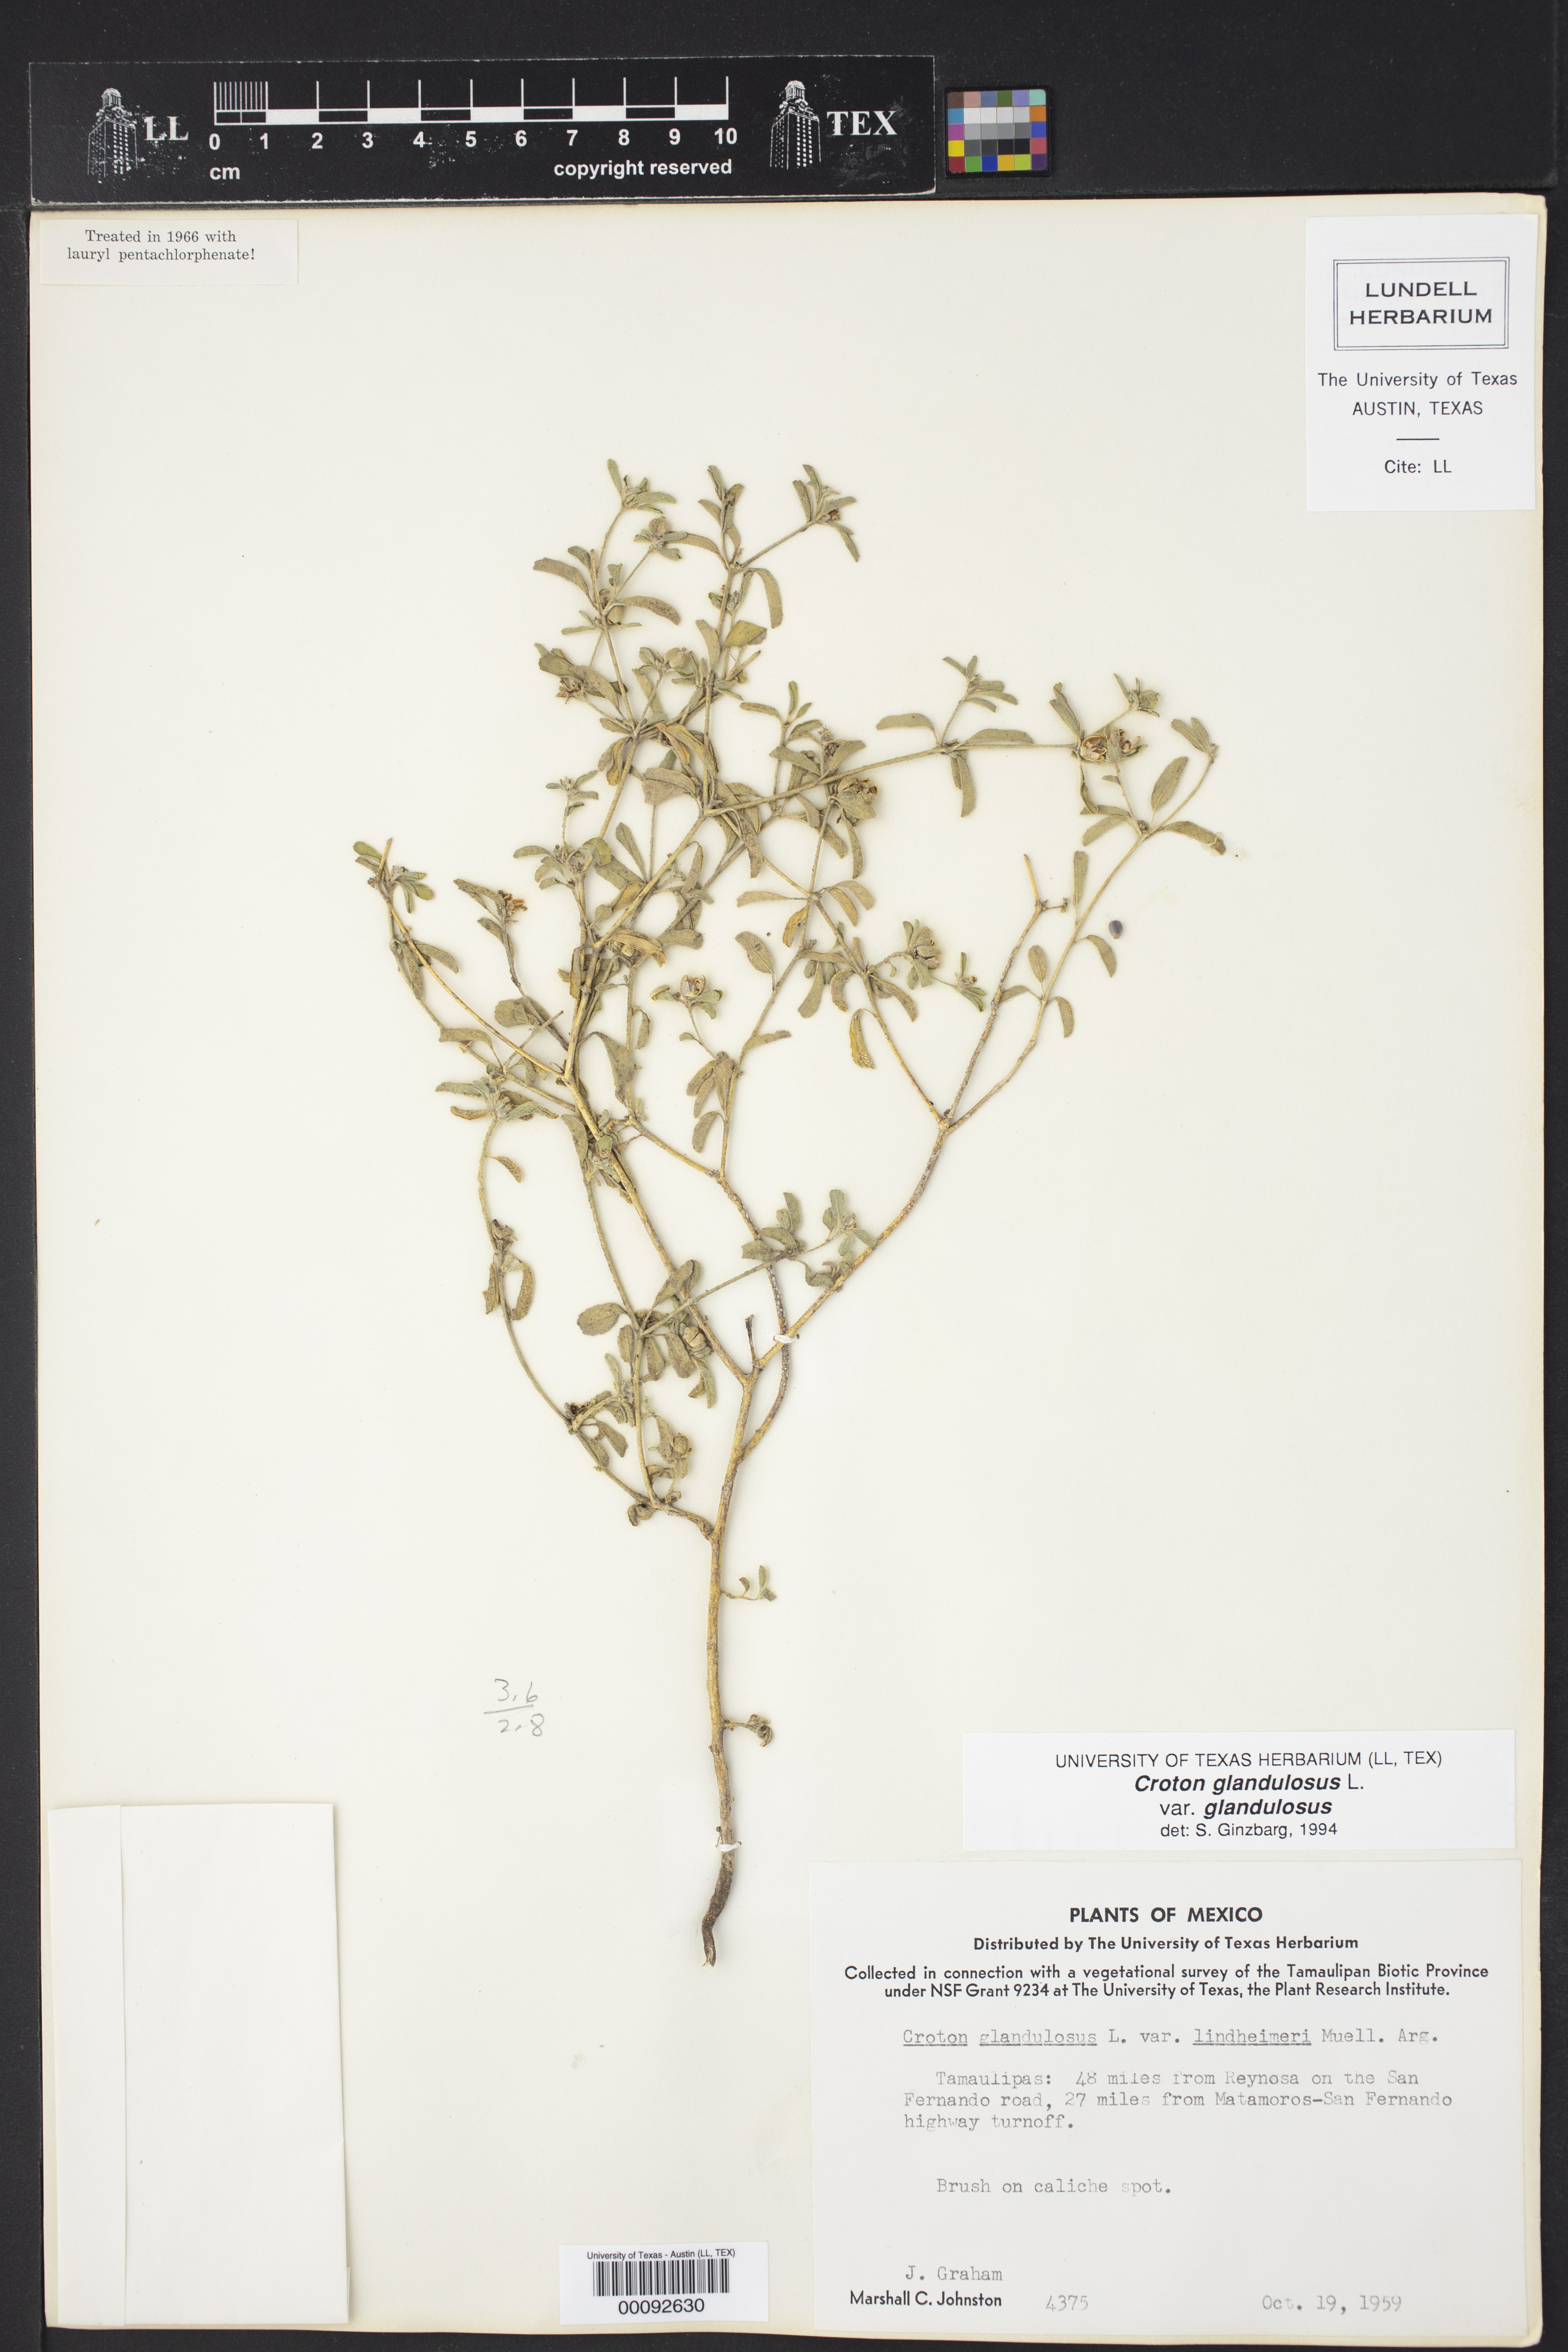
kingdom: Plantae
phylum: Tracheophyta
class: Magnoliopsida
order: Malpighiales
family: Euphorbiaceae
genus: Croton
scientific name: Croton glandulosus
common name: Tropic croton
